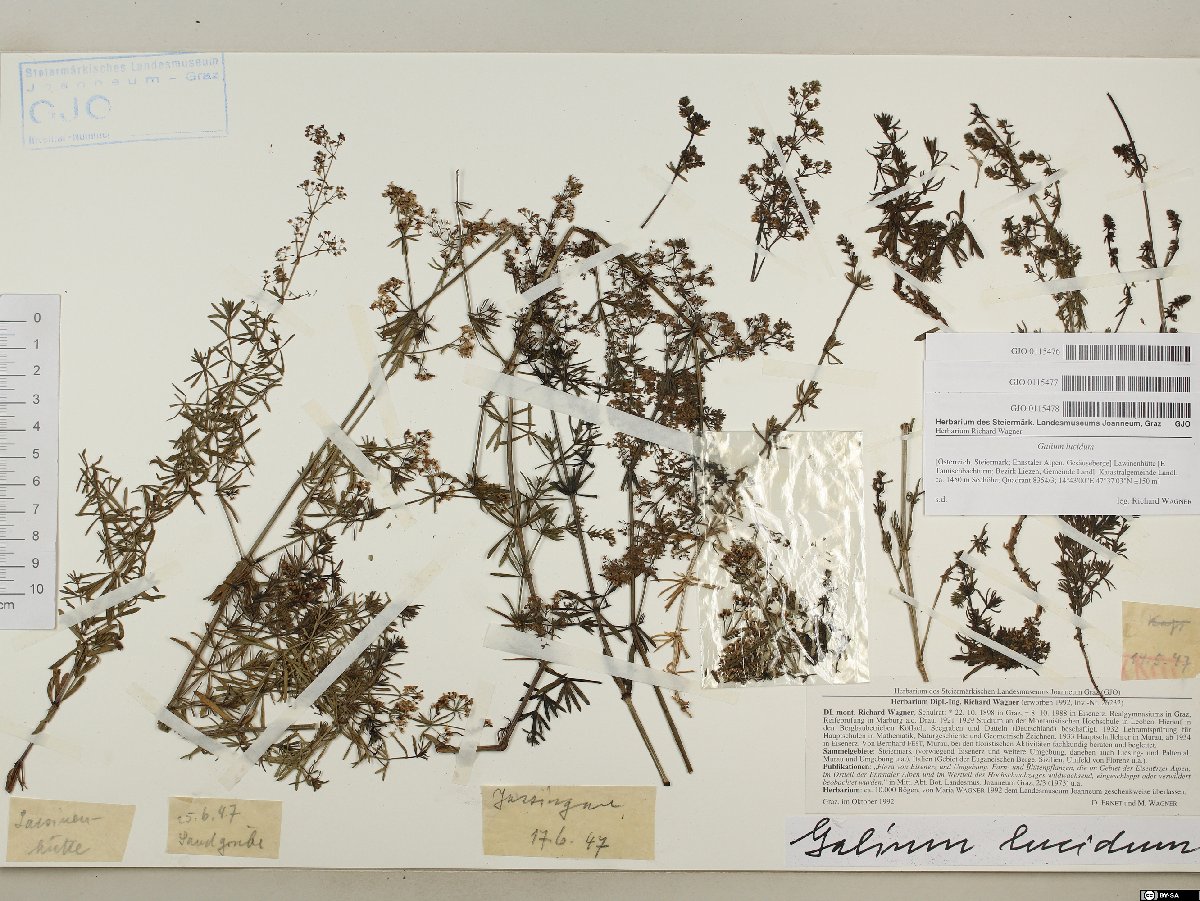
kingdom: Plantae
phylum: Tracheophyta
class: Magnoliopsida
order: Gentianales
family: Rubiaceae
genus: Galium
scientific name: Galium lucidum
